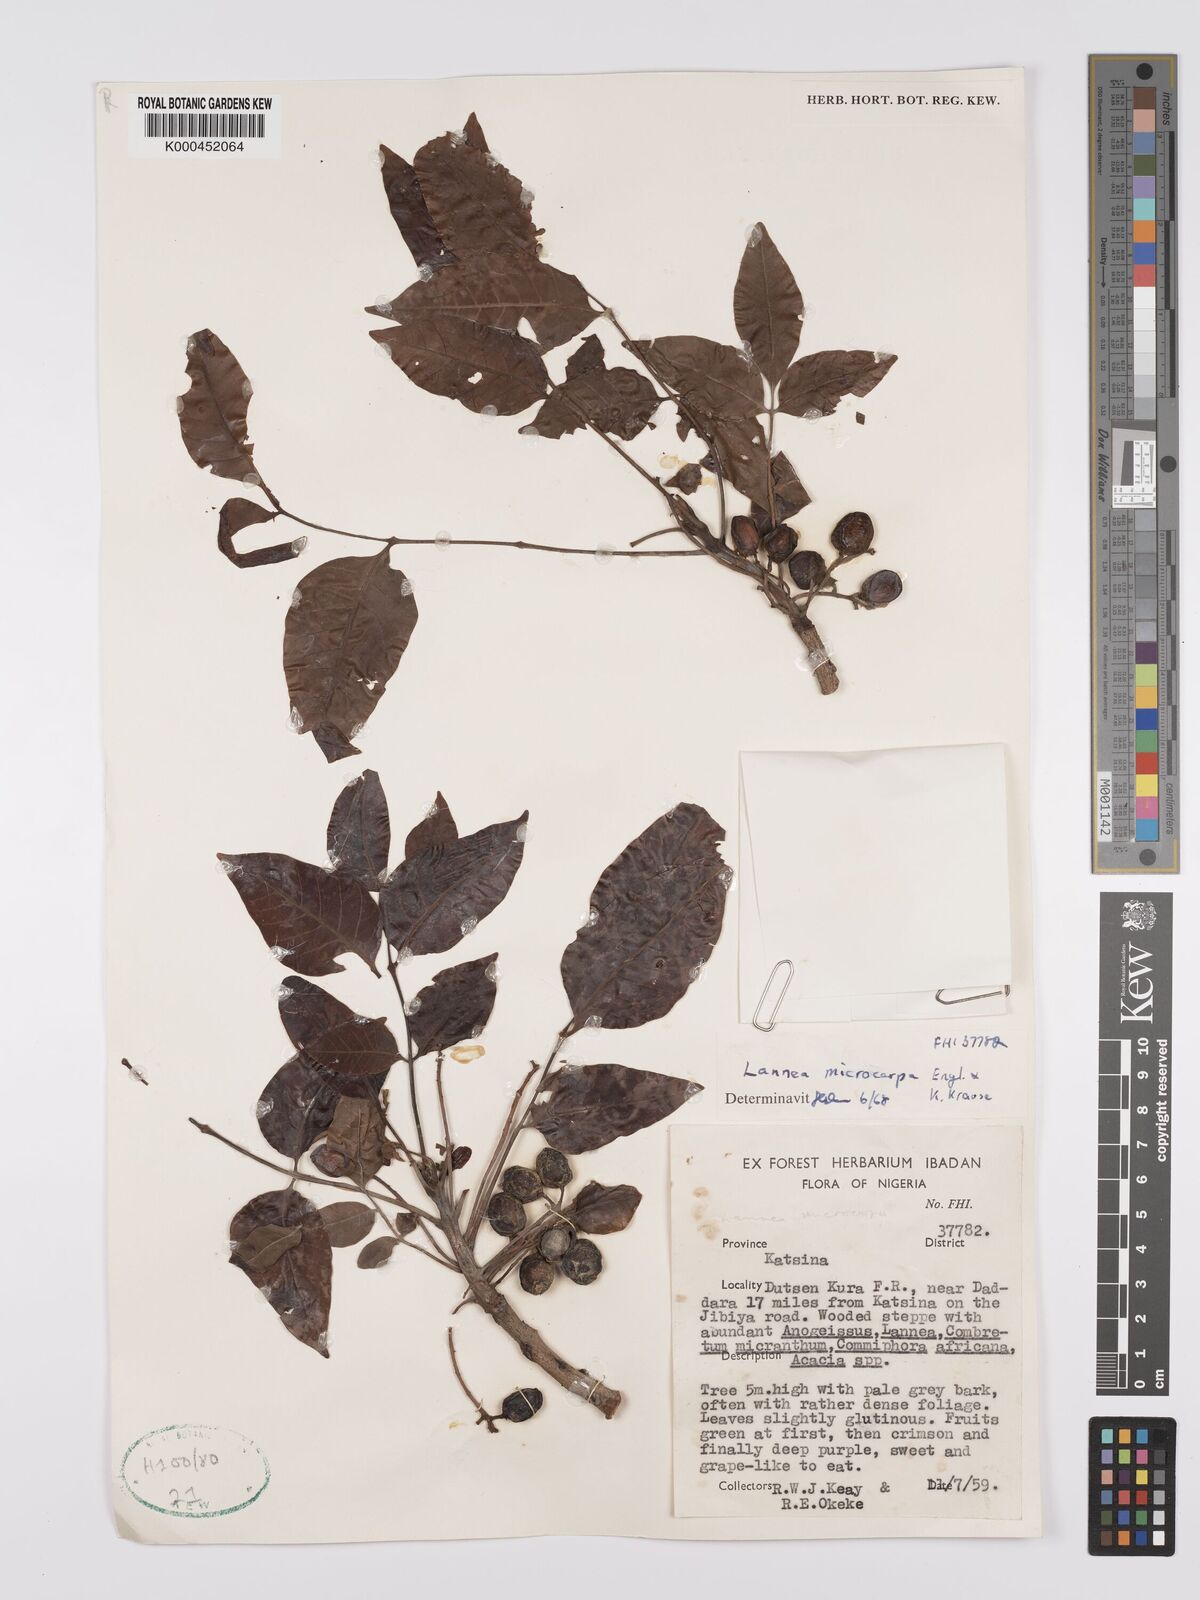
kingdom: Plantae
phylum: Tracheophyta
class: Magnoliopsida
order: Sapindales
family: Anacardiaceae
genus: Lannea
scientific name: Lannea microcarpa
